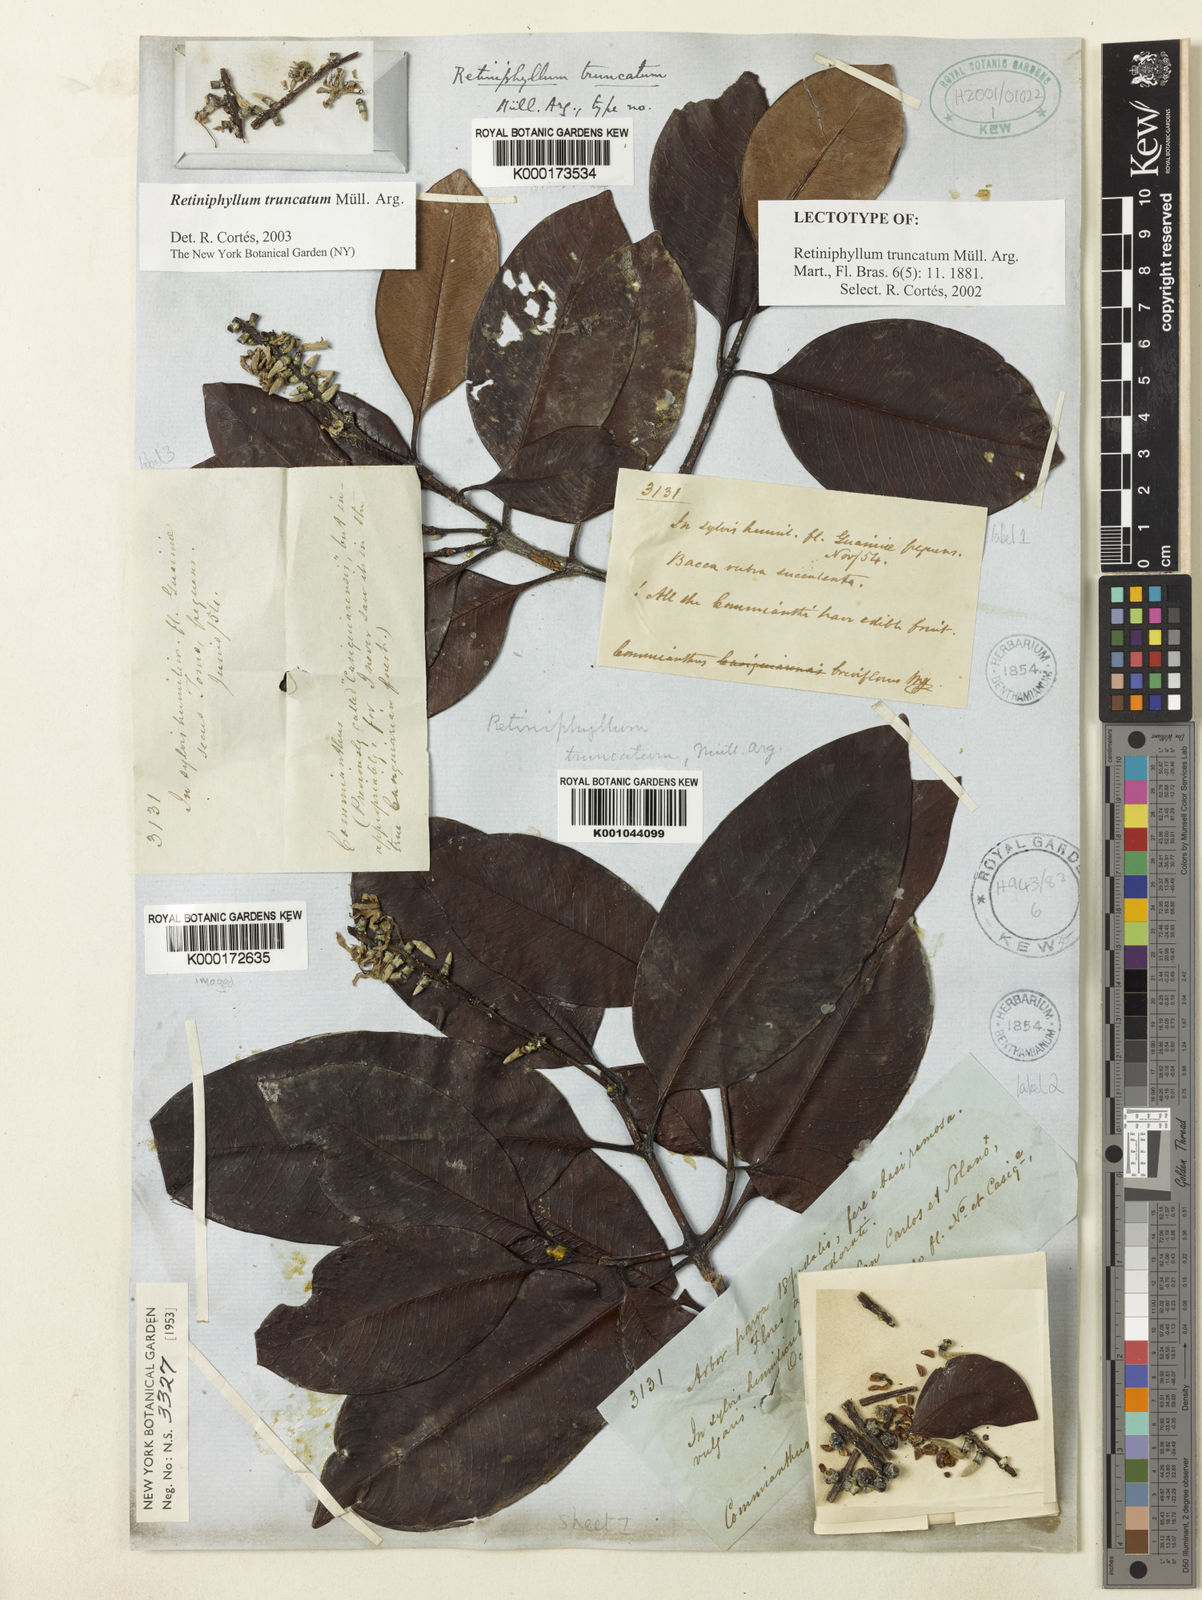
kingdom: Plantae
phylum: Tracheophyta
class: Magnoliopsida
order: Gentianales
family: Rubiaceae
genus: Retiniphyllum
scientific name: Retiniphyllum
